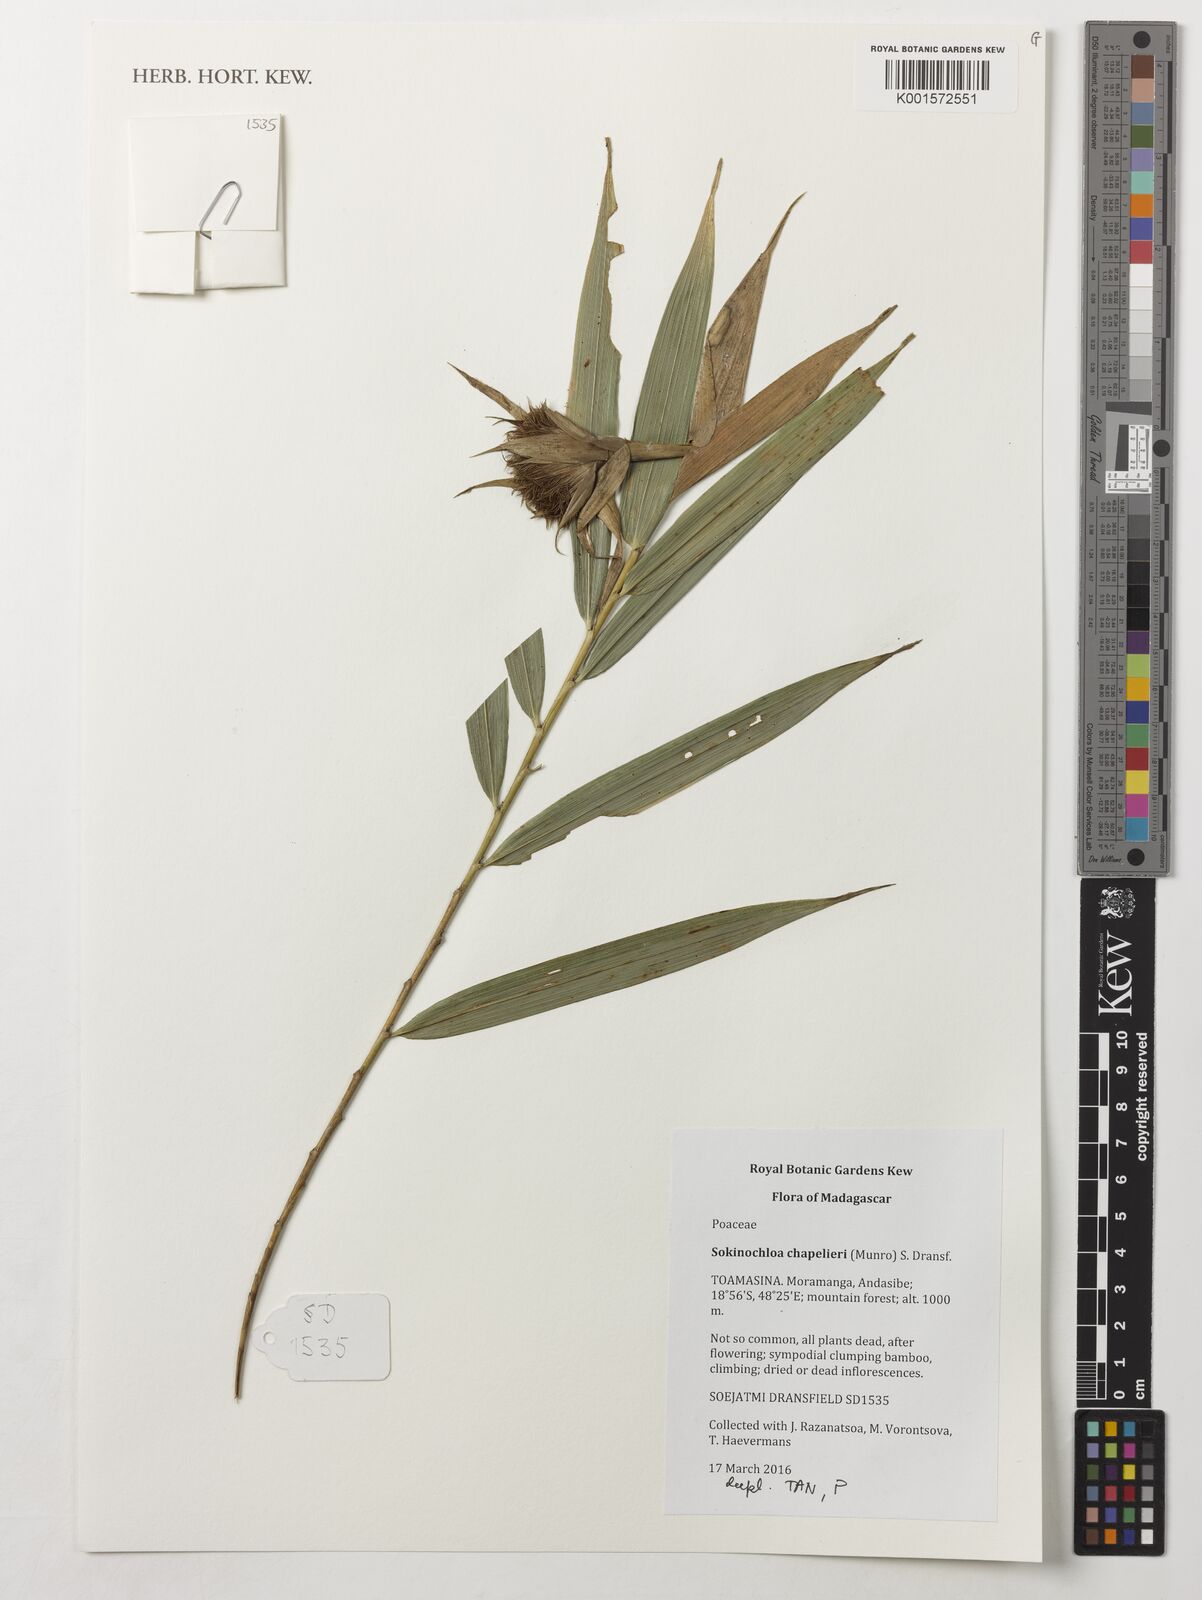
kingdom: Plantae
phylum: Tracheophyta
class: Liliopsida
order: Poales
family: Poaceae
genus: Sokinochloa
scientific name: Sokinochloa chapelieri
